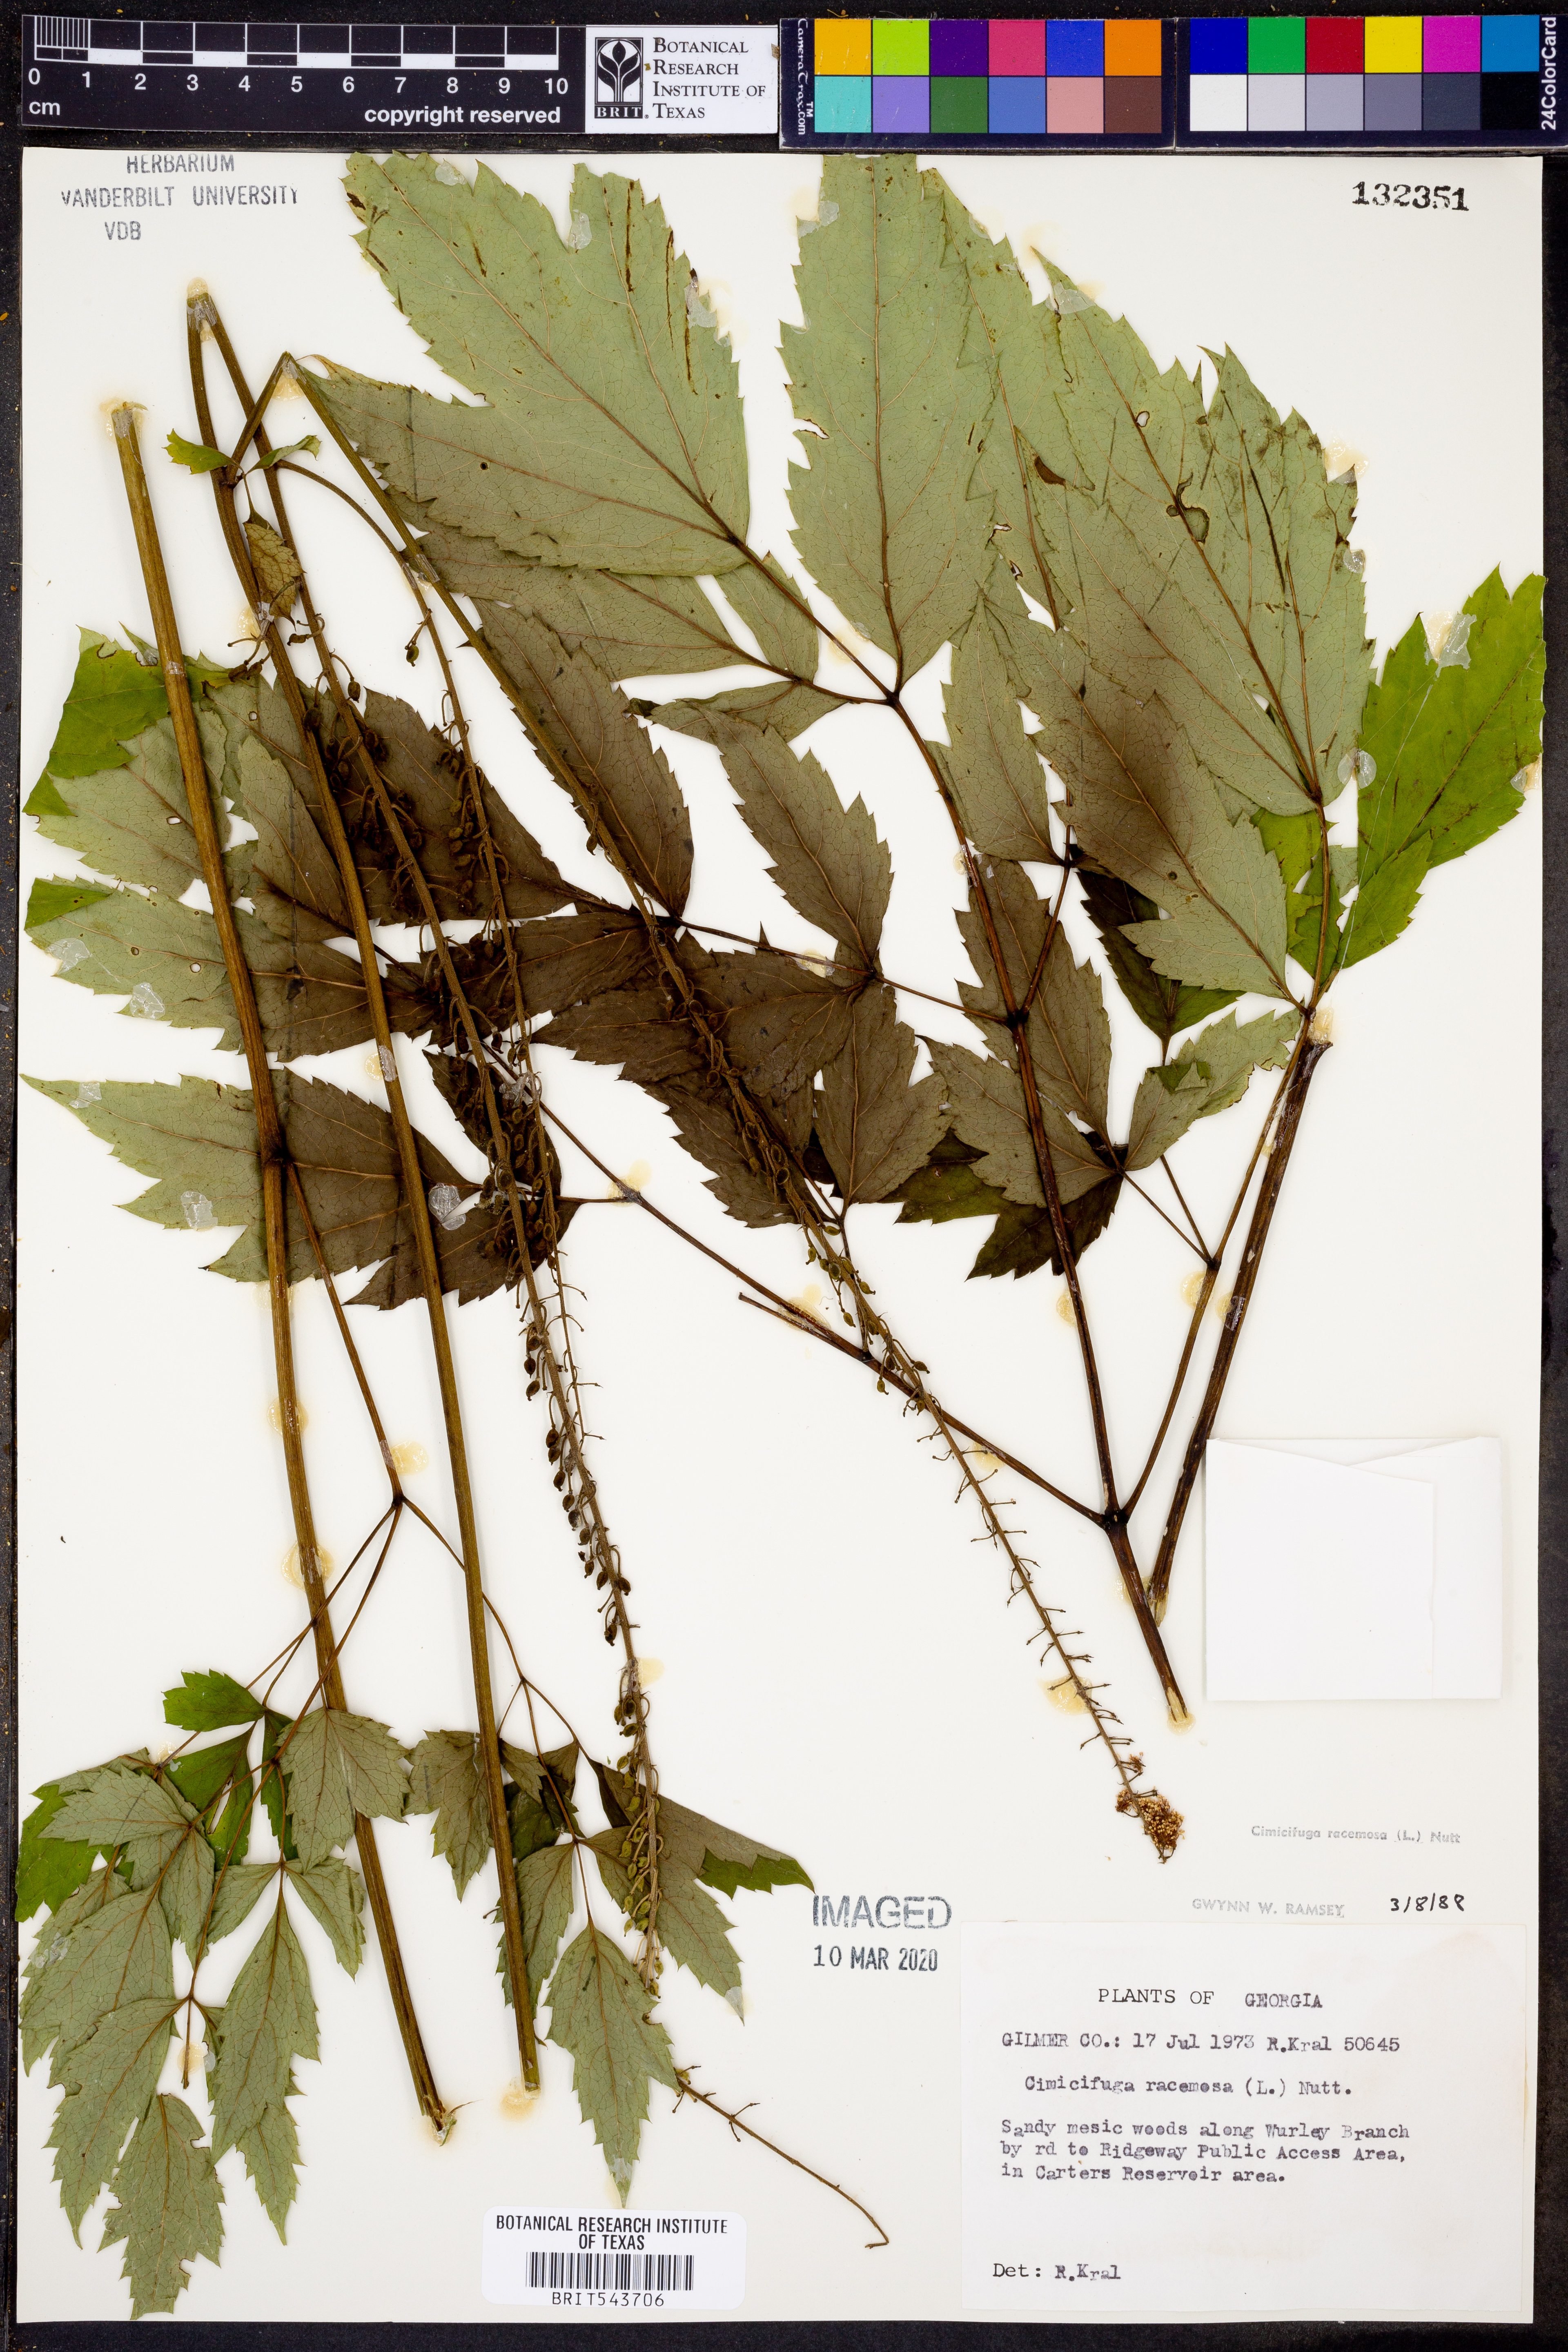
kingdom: Plantae
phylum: Tracheophyta
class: Magnoliopsida
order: Ranunculales
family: Ranunculaceae
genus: Actaea
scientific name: Actaea racemosa
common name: Black cohosh
